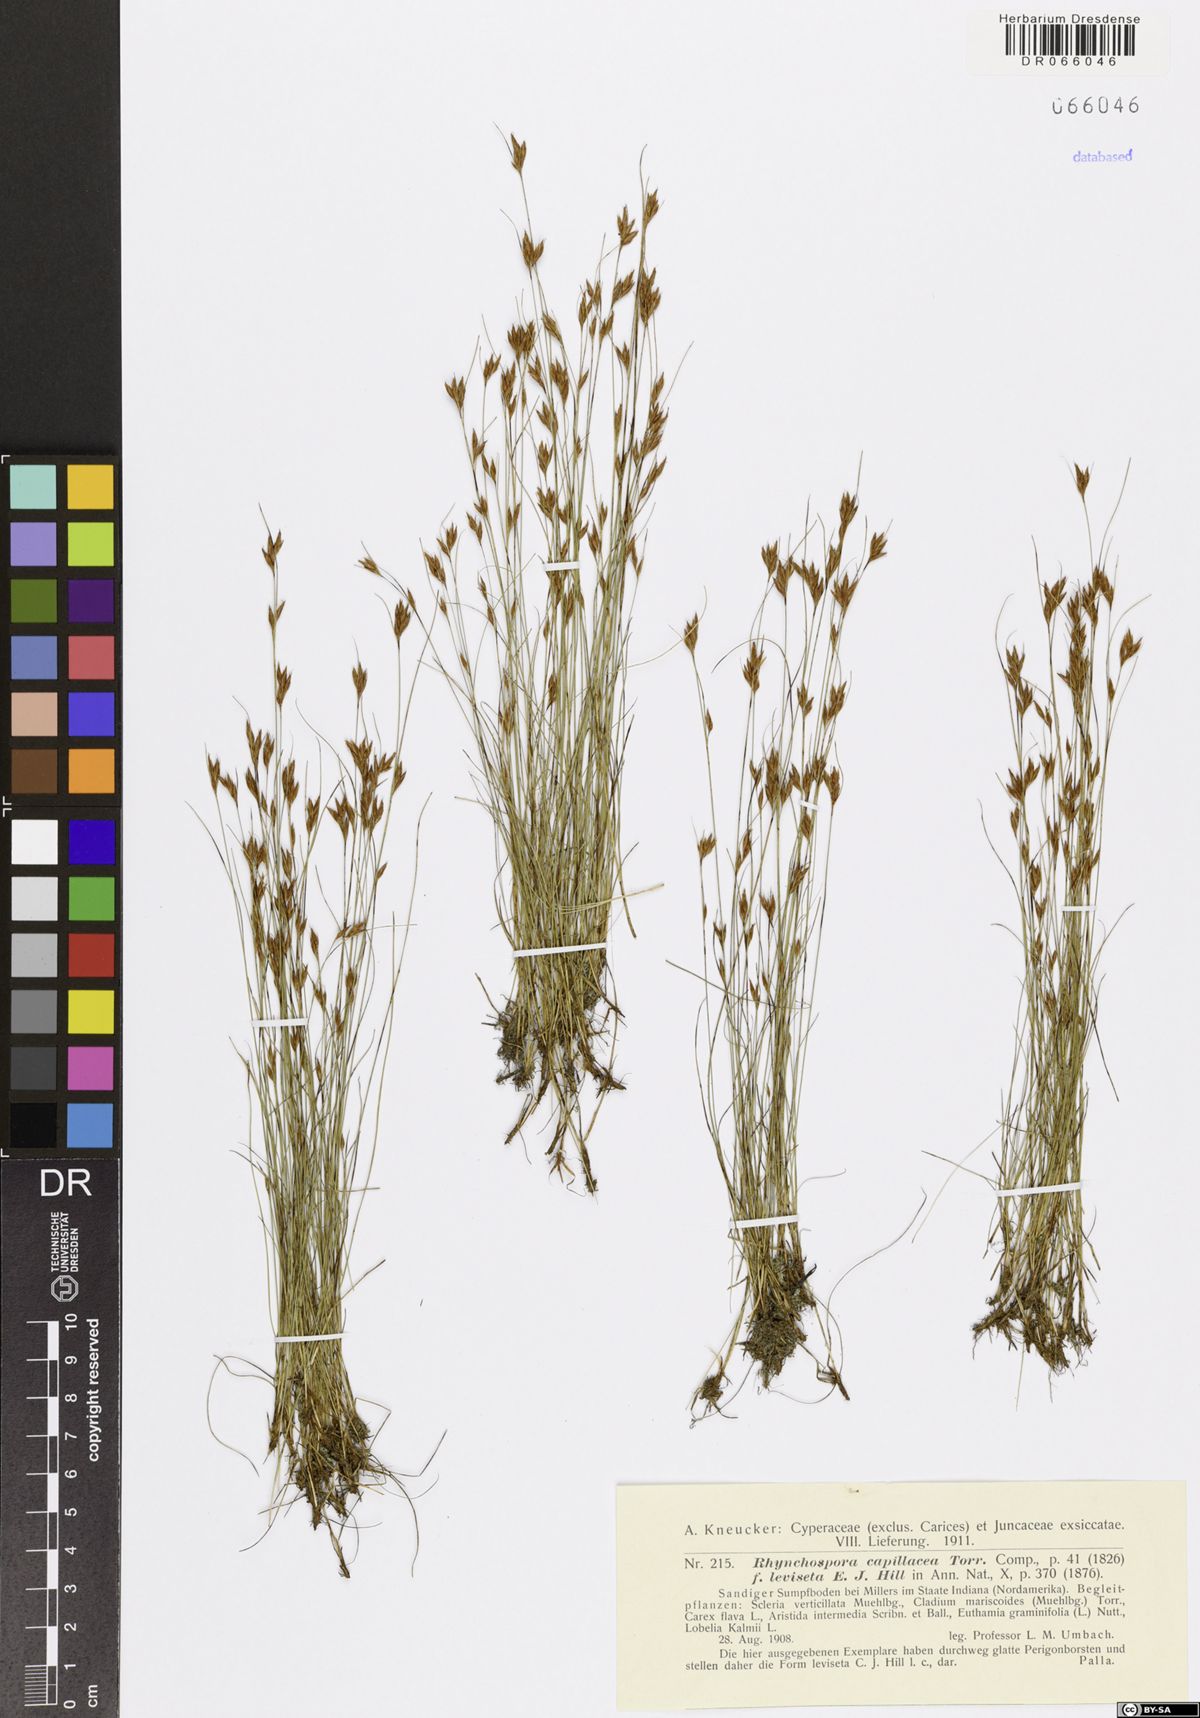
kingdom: Plantae
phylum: Tracheophyta
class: Liliopsida
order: Poales
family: Cyperaceae
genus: Rhynchospora
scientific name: Rhynchospora capillacea
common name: Capillary beakrush
